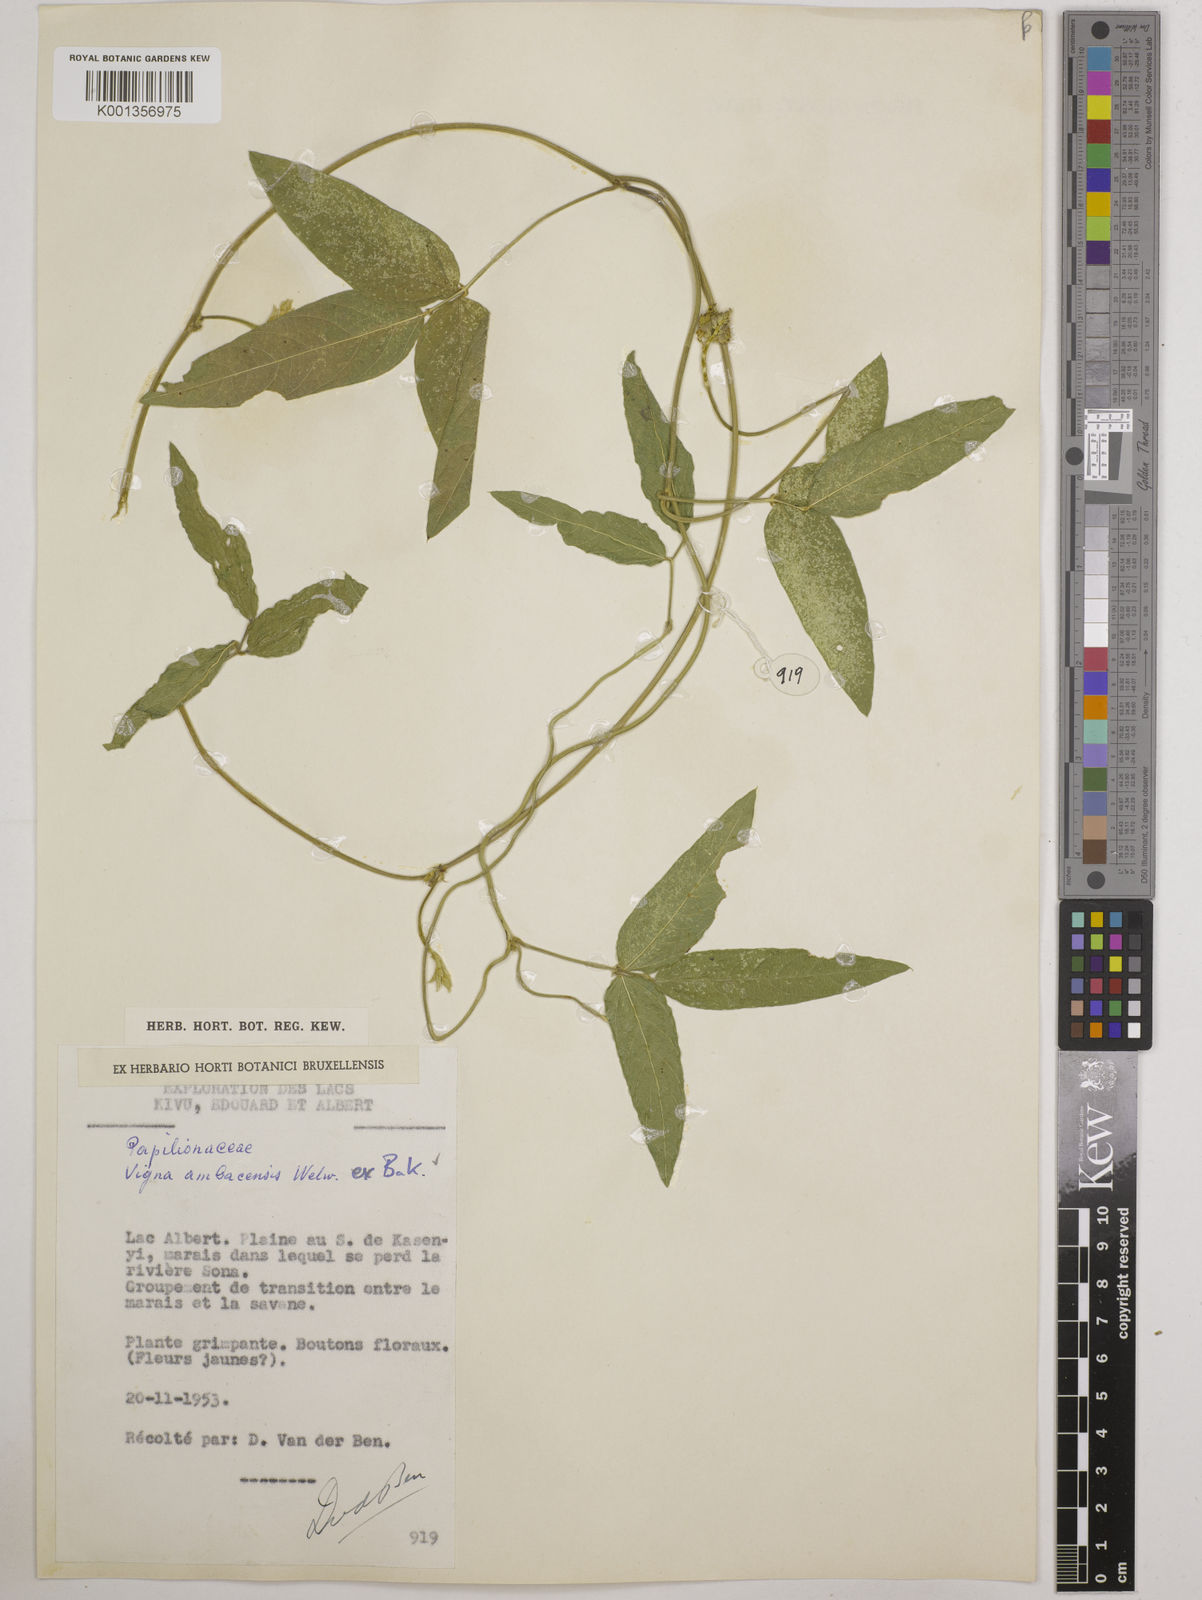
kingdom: Plantae
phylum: Tracheophyta
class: Magnoliopsida
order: Fabales
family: Fabaceae
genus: Vigna
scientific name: Vigna ambacensis
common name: Tsarkiyan zomo
